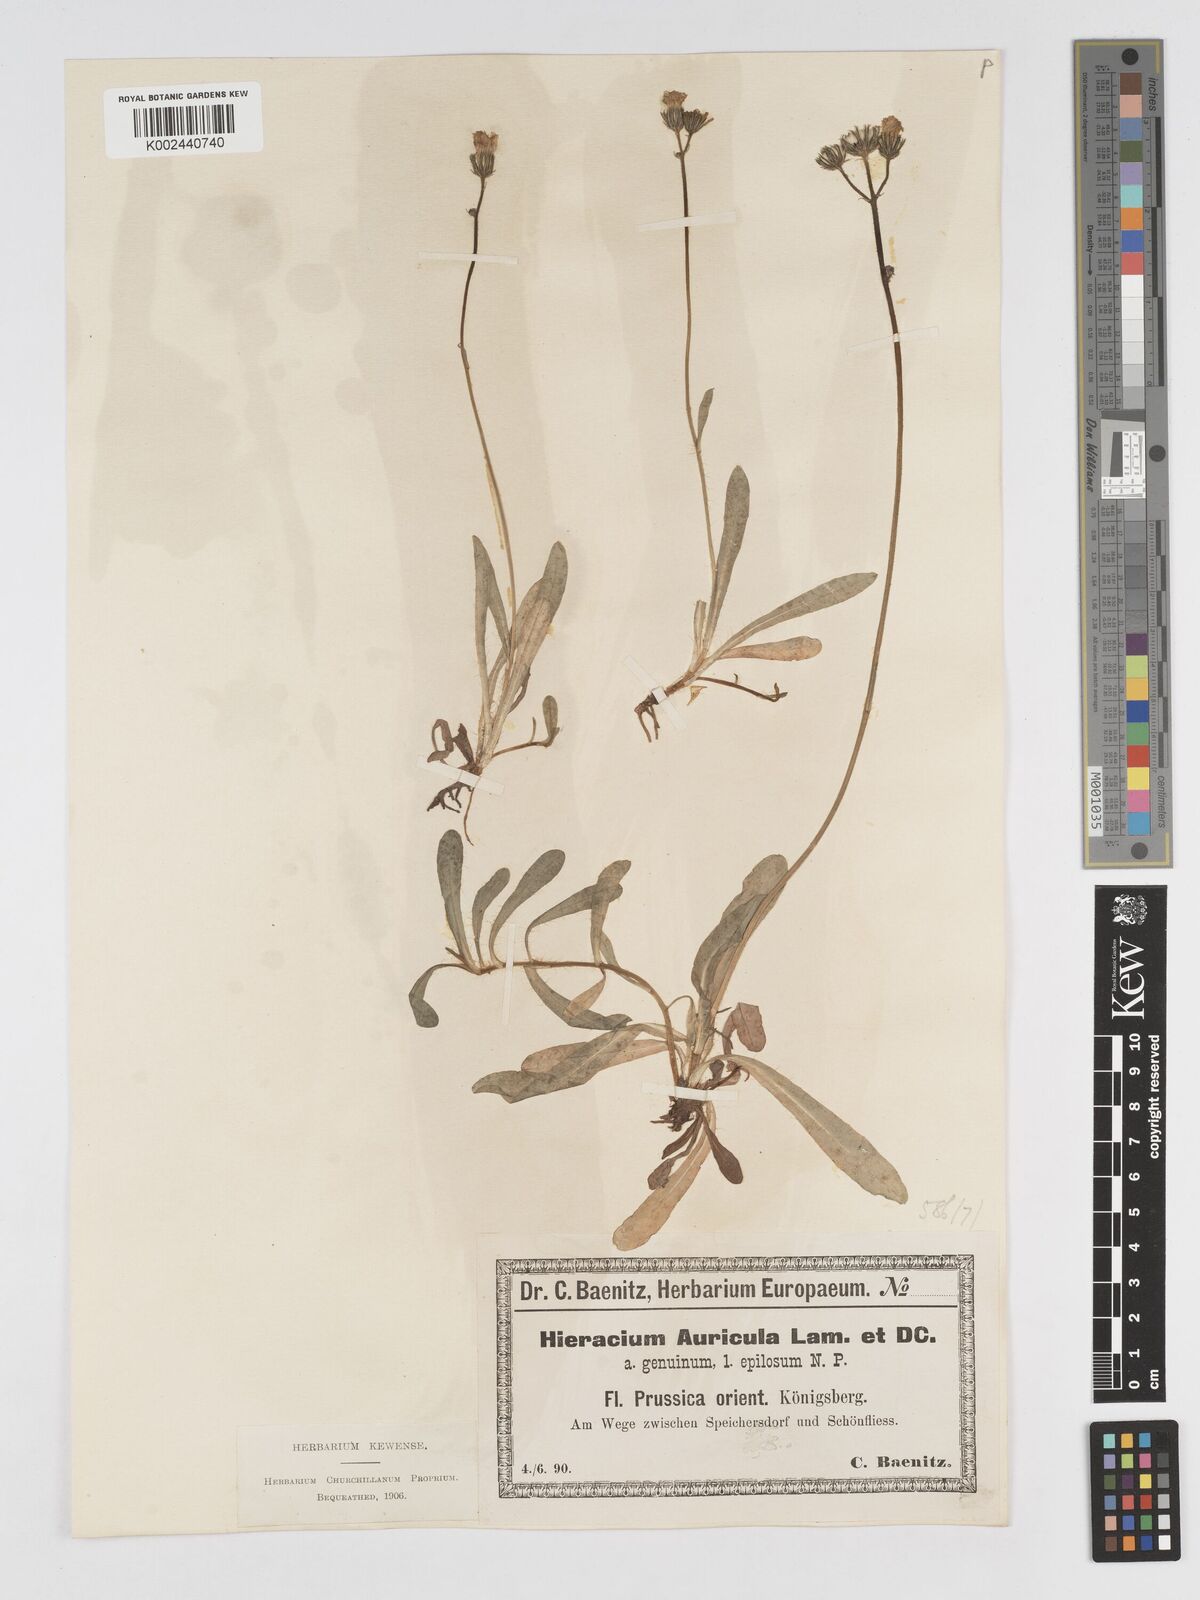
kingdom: Plantae
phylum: Tracheophyta
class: Magnoliopsida
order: Asterales
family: Asteraceae
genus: Pilosella
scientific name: Pilosella floribunda
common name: Glaucous hawkweed
